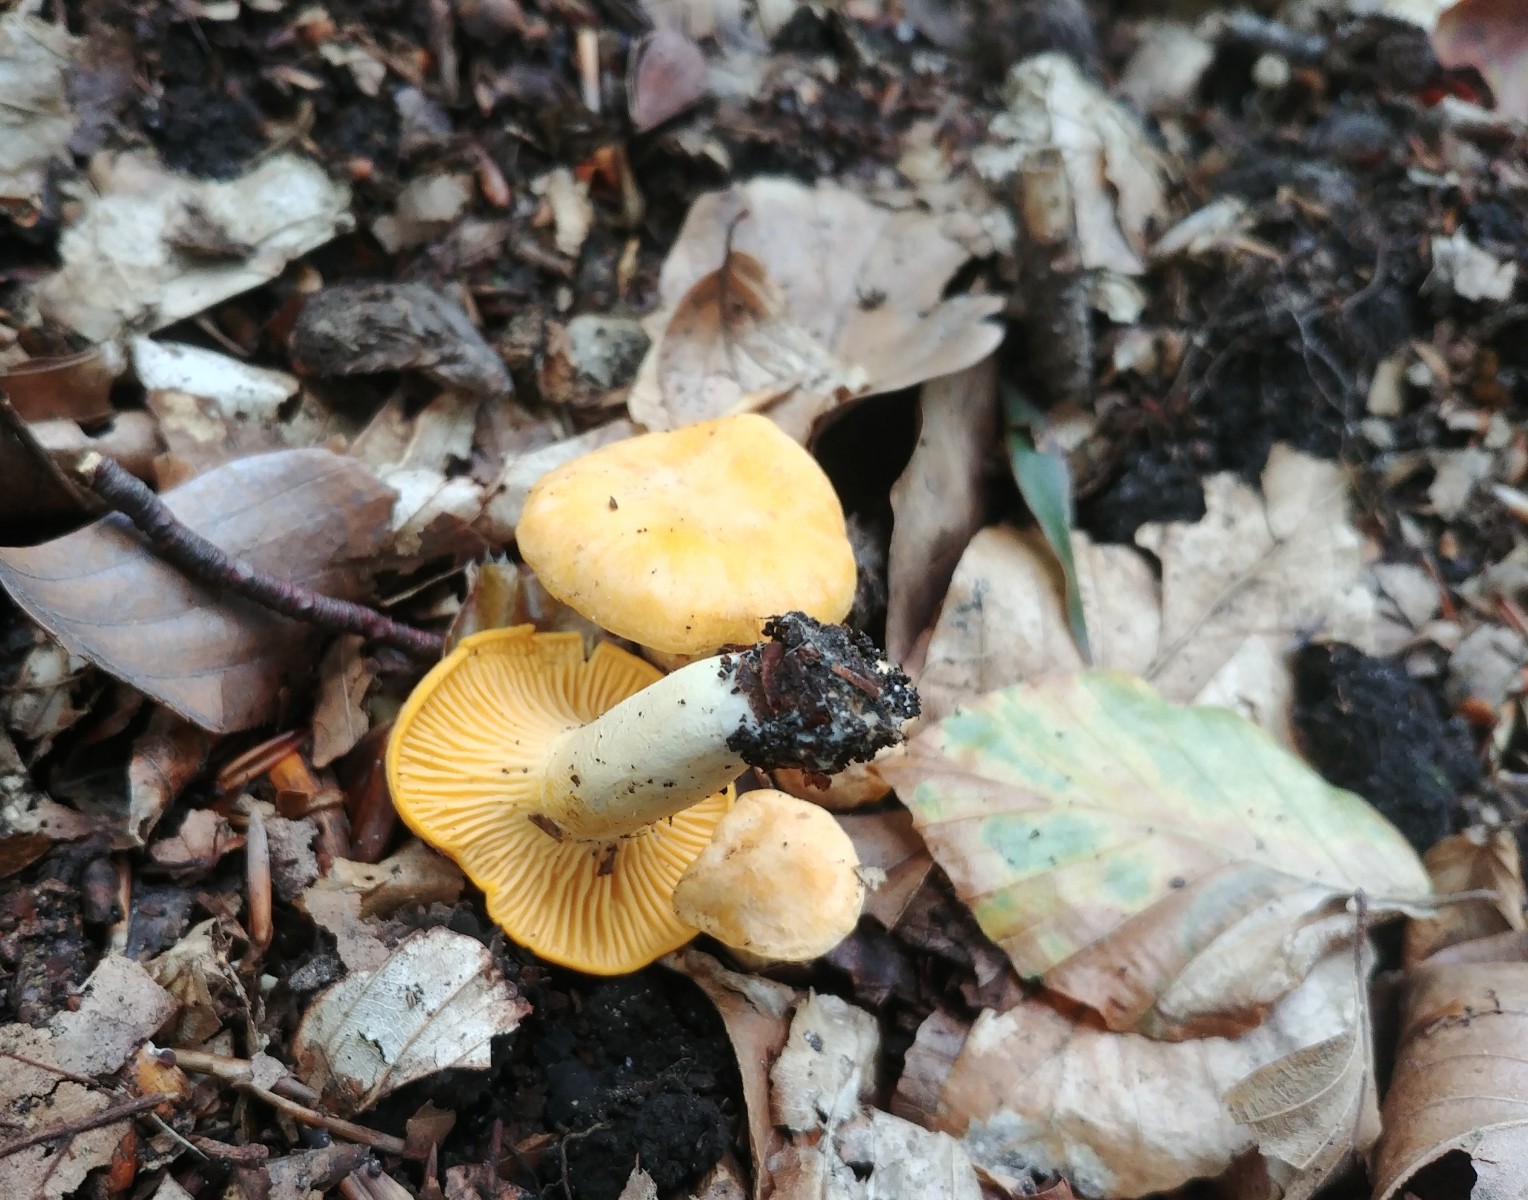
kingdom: Fungi
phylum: Basidiomycota
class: Agaricomycetes
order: Cantharellales
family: Hydnaceae
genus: Cantharellus
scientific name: Cantharellus cibarius
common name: almindelig kantarel
